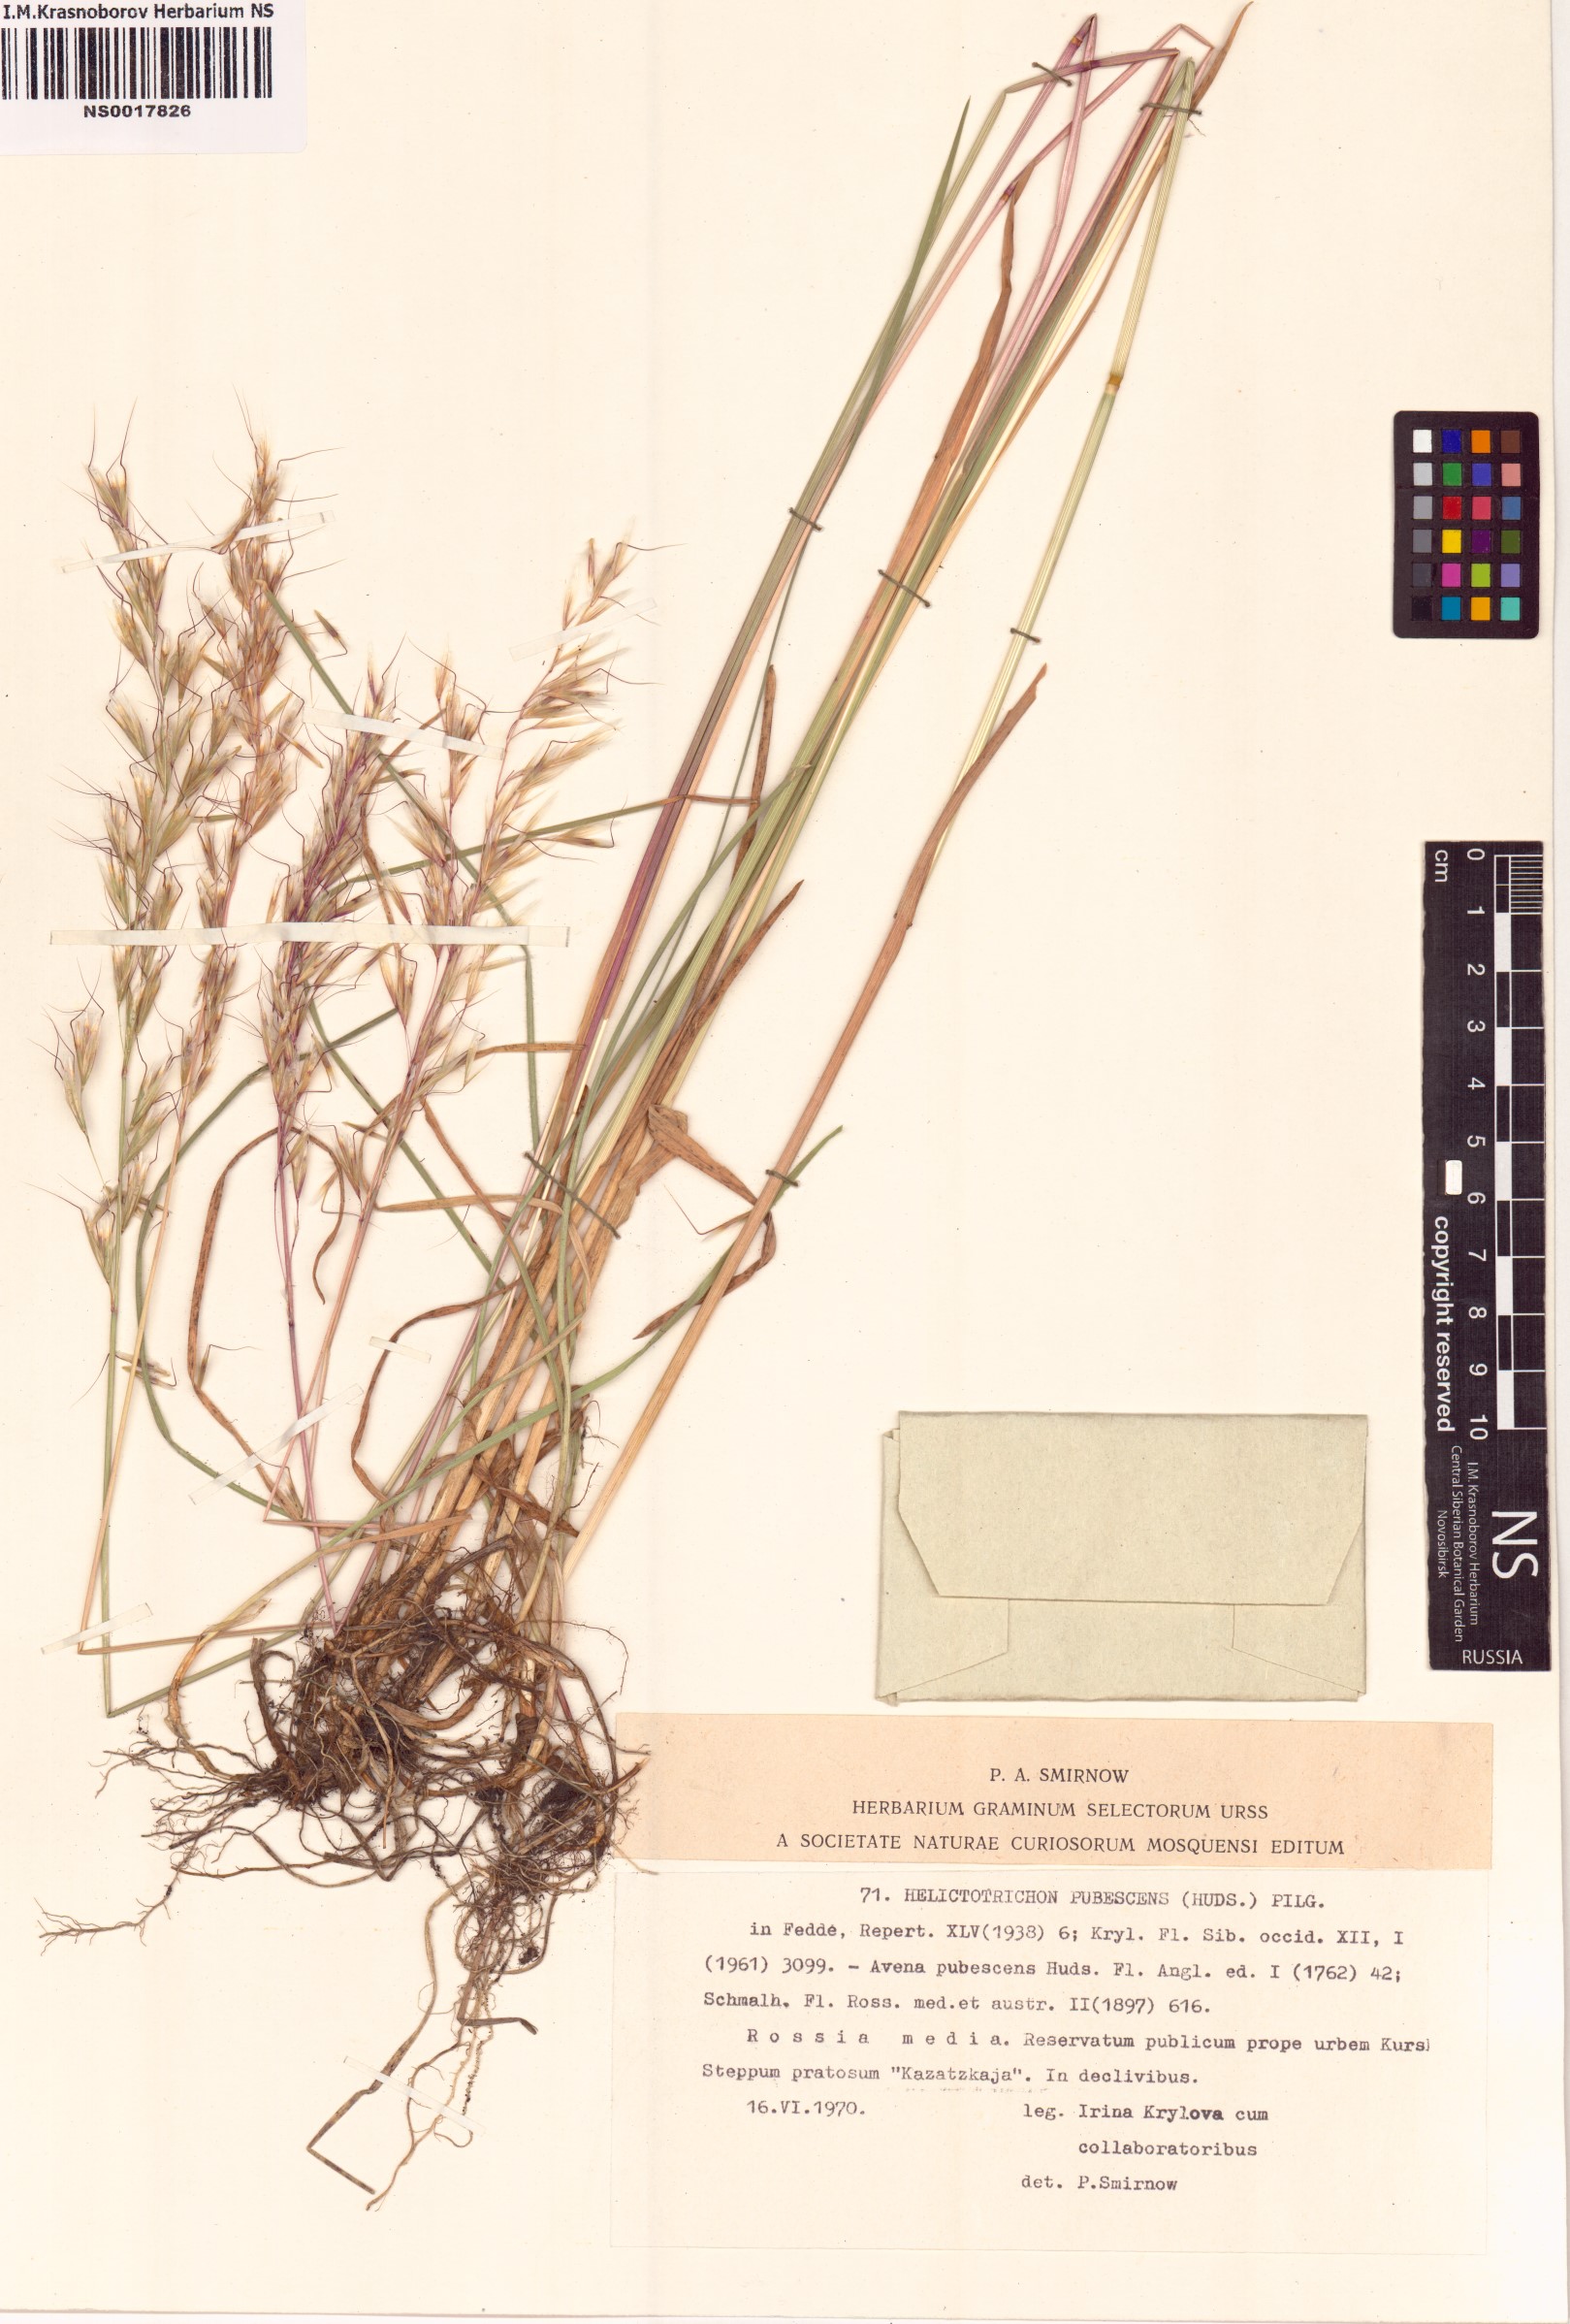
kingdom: Plantae
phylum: Tracheophyta
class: Liliopsida
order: Poales
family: Poaceae
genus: Avenula
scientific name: Avenula pubescens
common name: Downy alpine oatgrass
